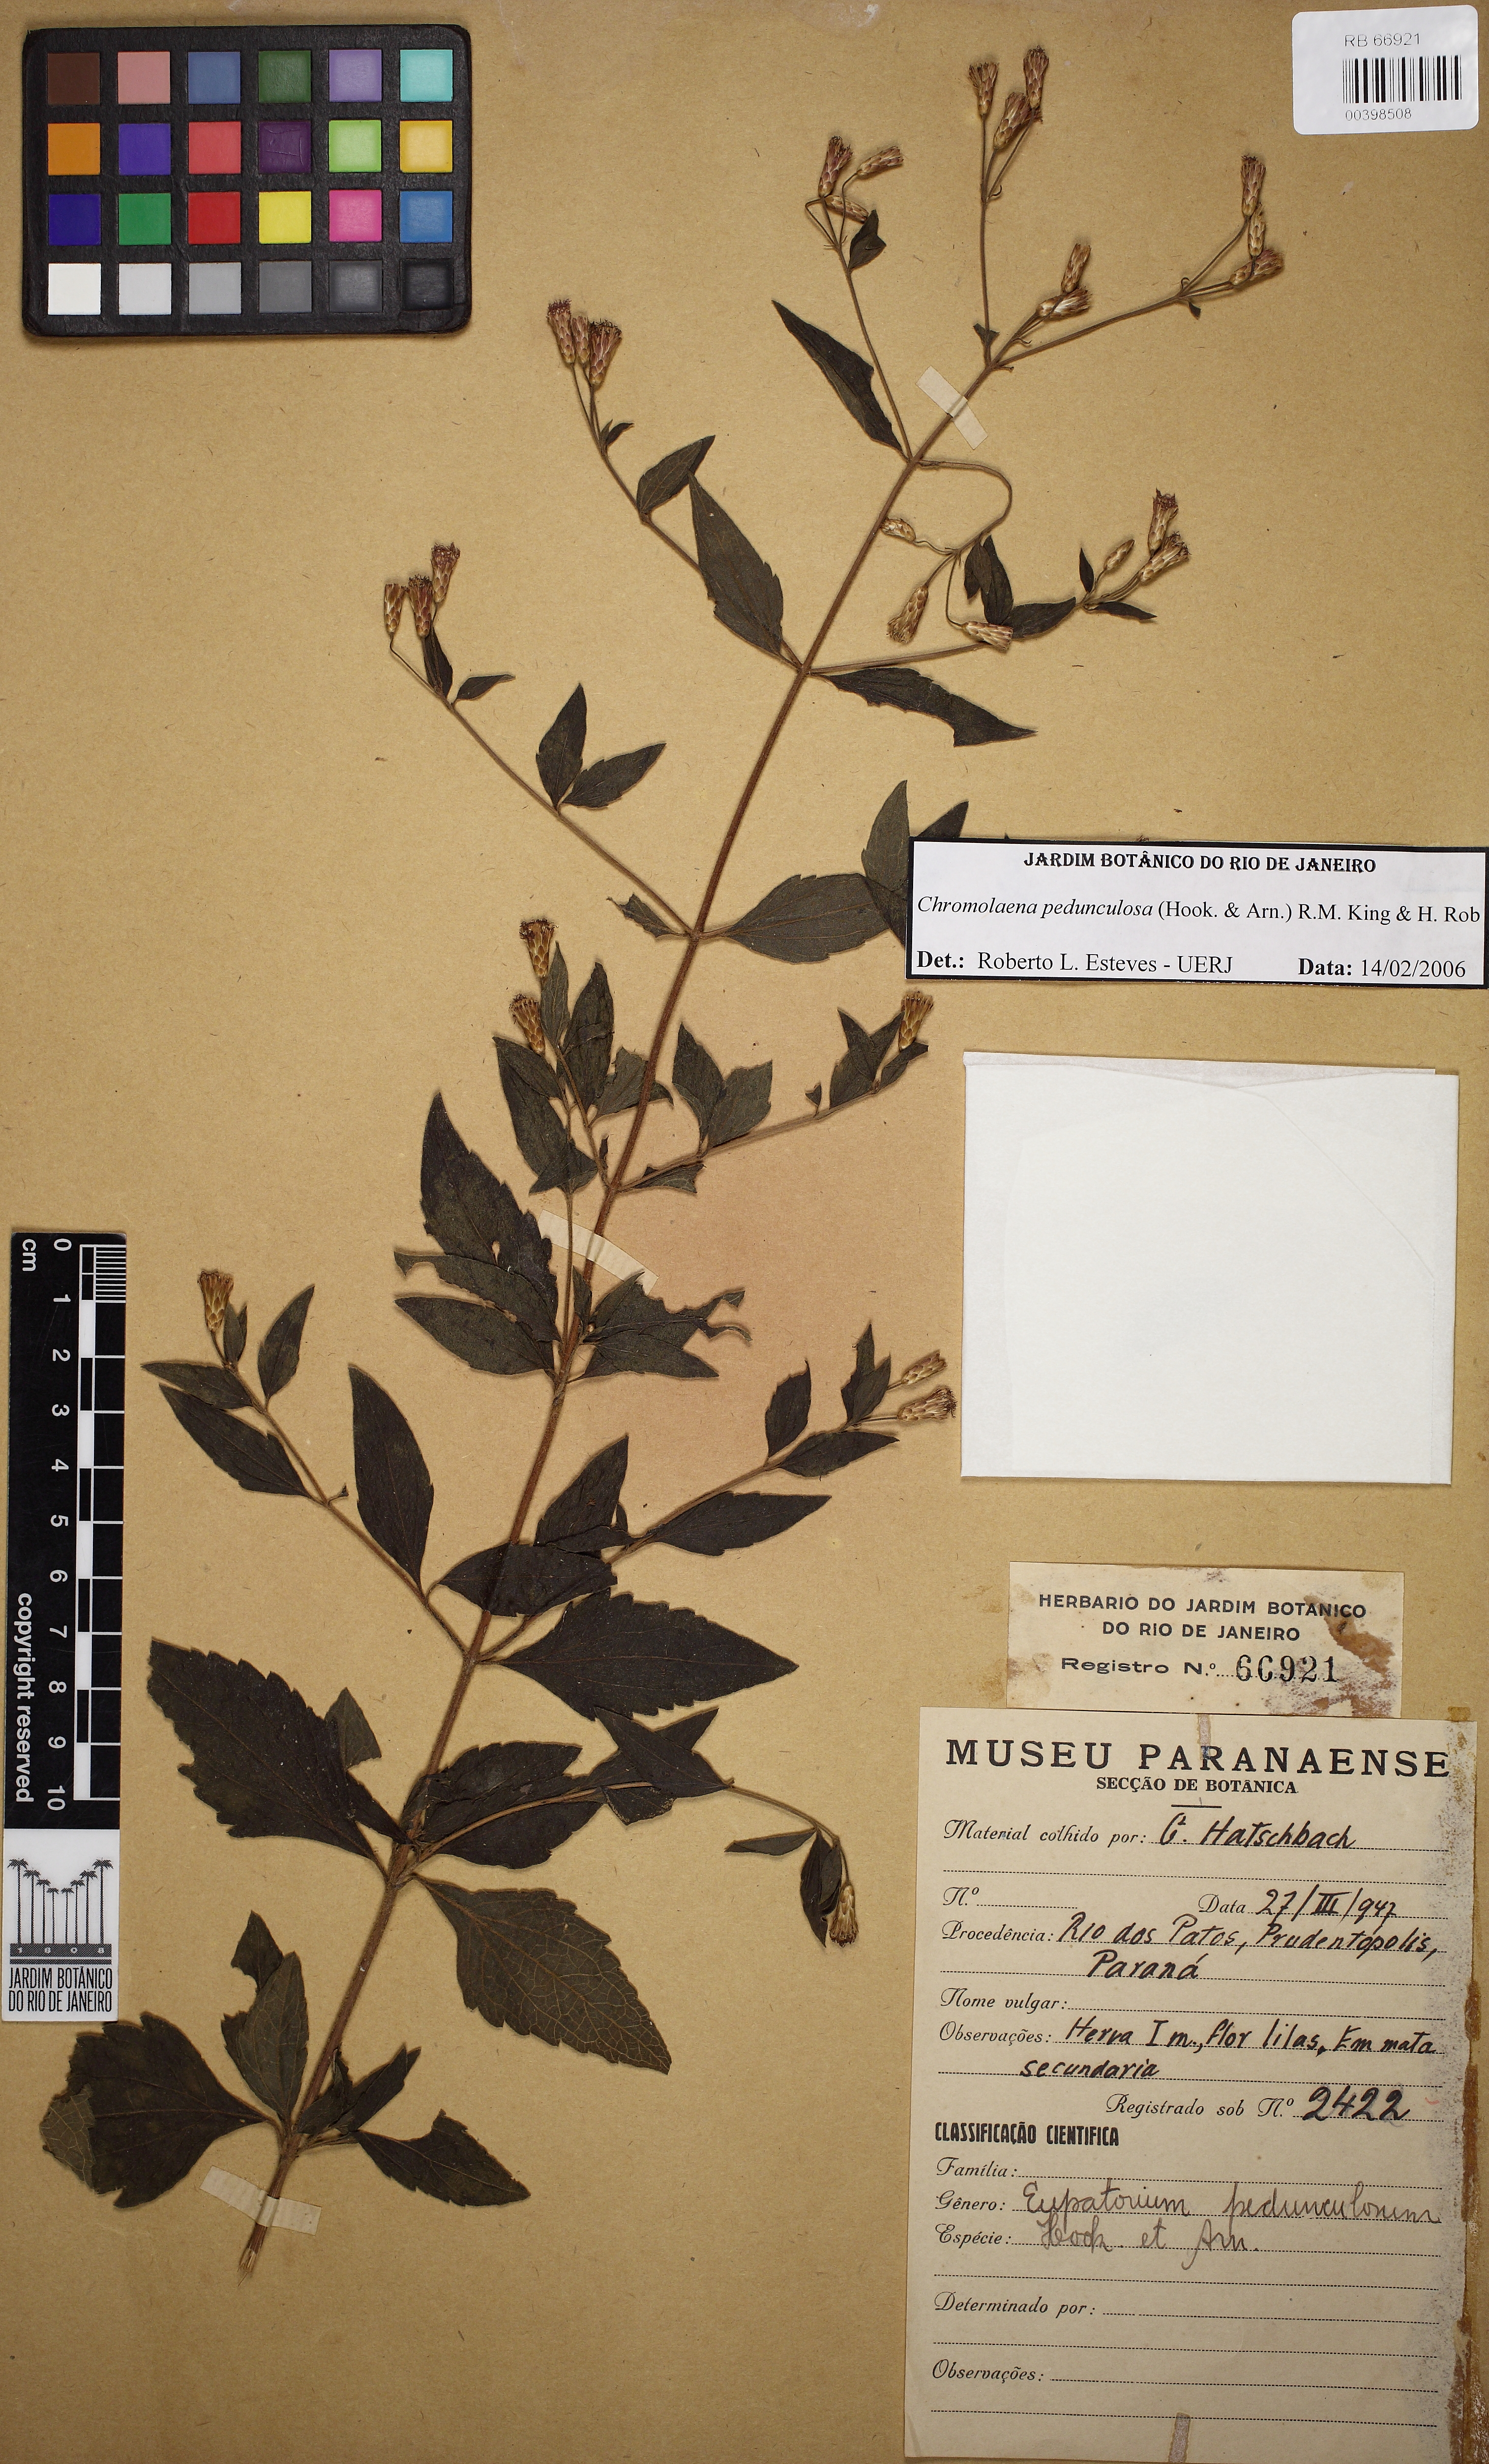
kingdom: Plantae
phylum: Tracheophyta
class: Magnoliopsida
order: Asterales
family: Asteraceae
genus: Chromolaena
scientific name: Chromolaena pedunculosa
